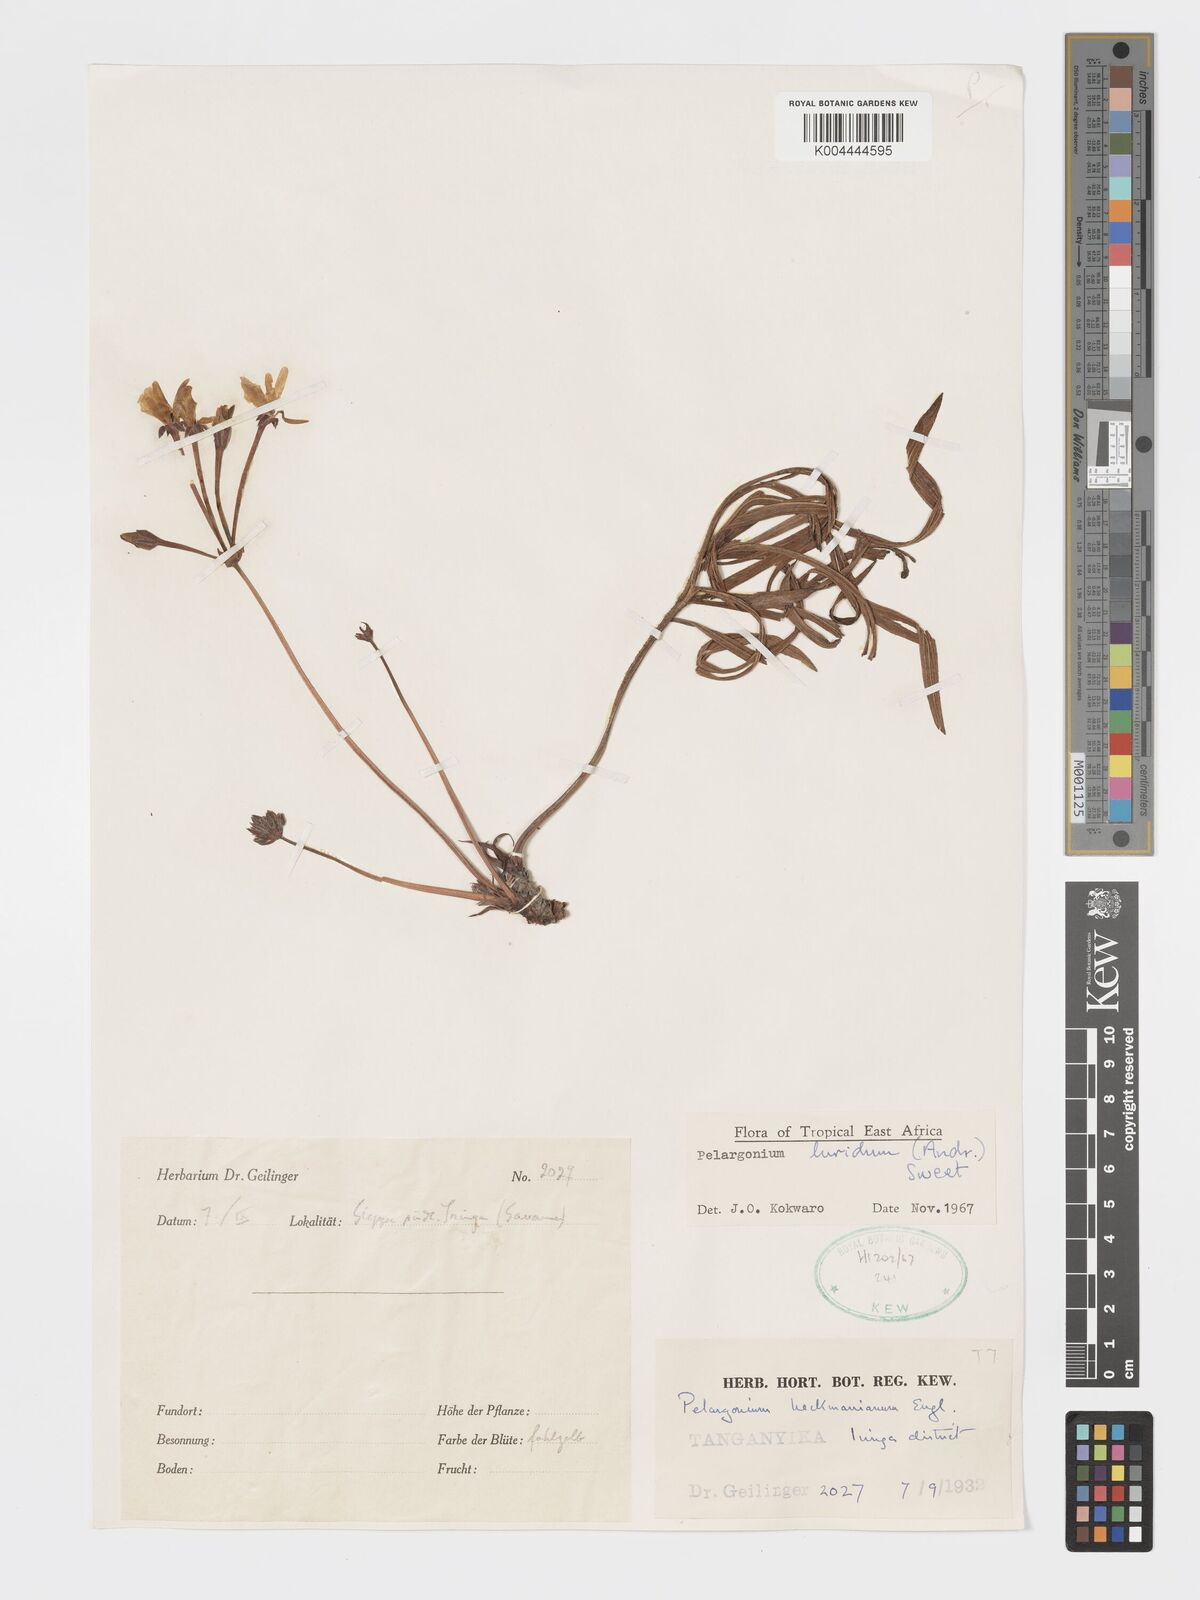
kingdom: Plantae
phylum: Tracheophyta
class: Magnoliopsida
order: Geraniales
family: Geraniaceae
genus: Pelargonium
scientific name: Pelargonium luridum
